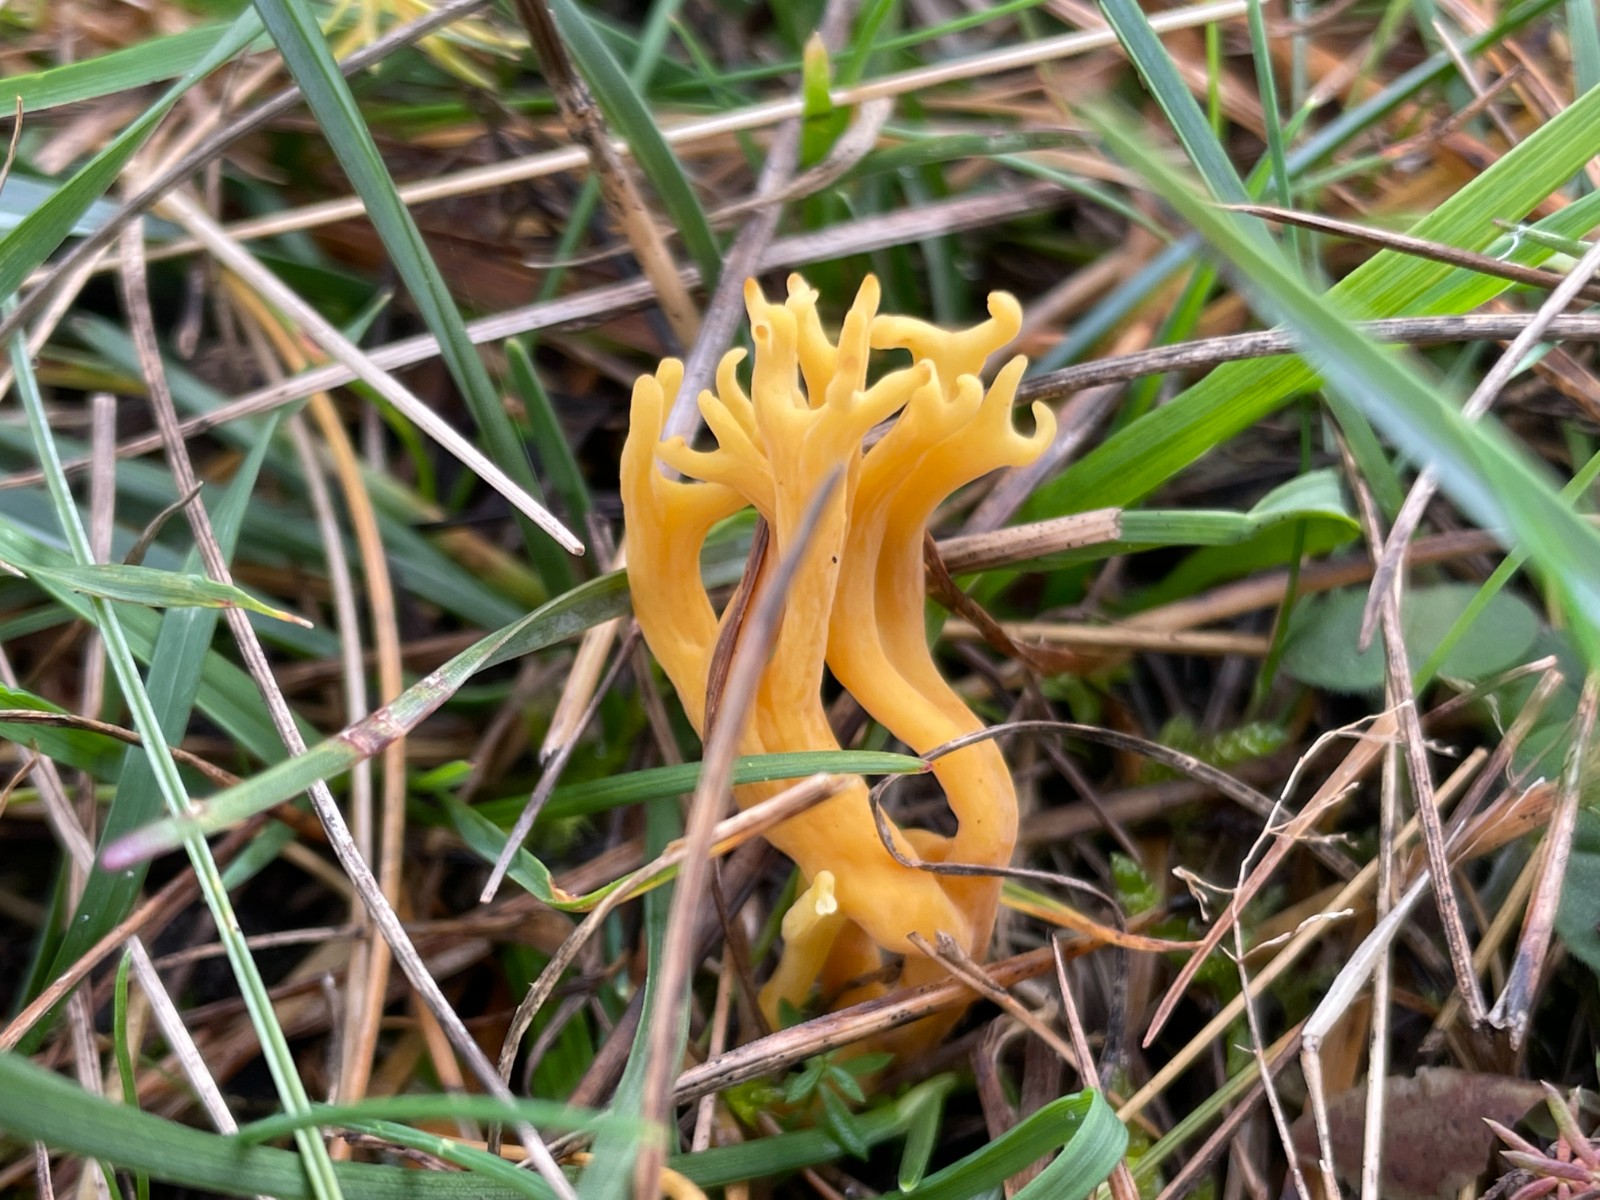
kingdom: Fungi
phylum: Basidiomycota
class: Agaricomycetes
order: Agaricales
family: Clavariaceae
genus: Clavulinopsis
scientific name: Clavulinopsis corniculata
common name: eng-køllesvamp
